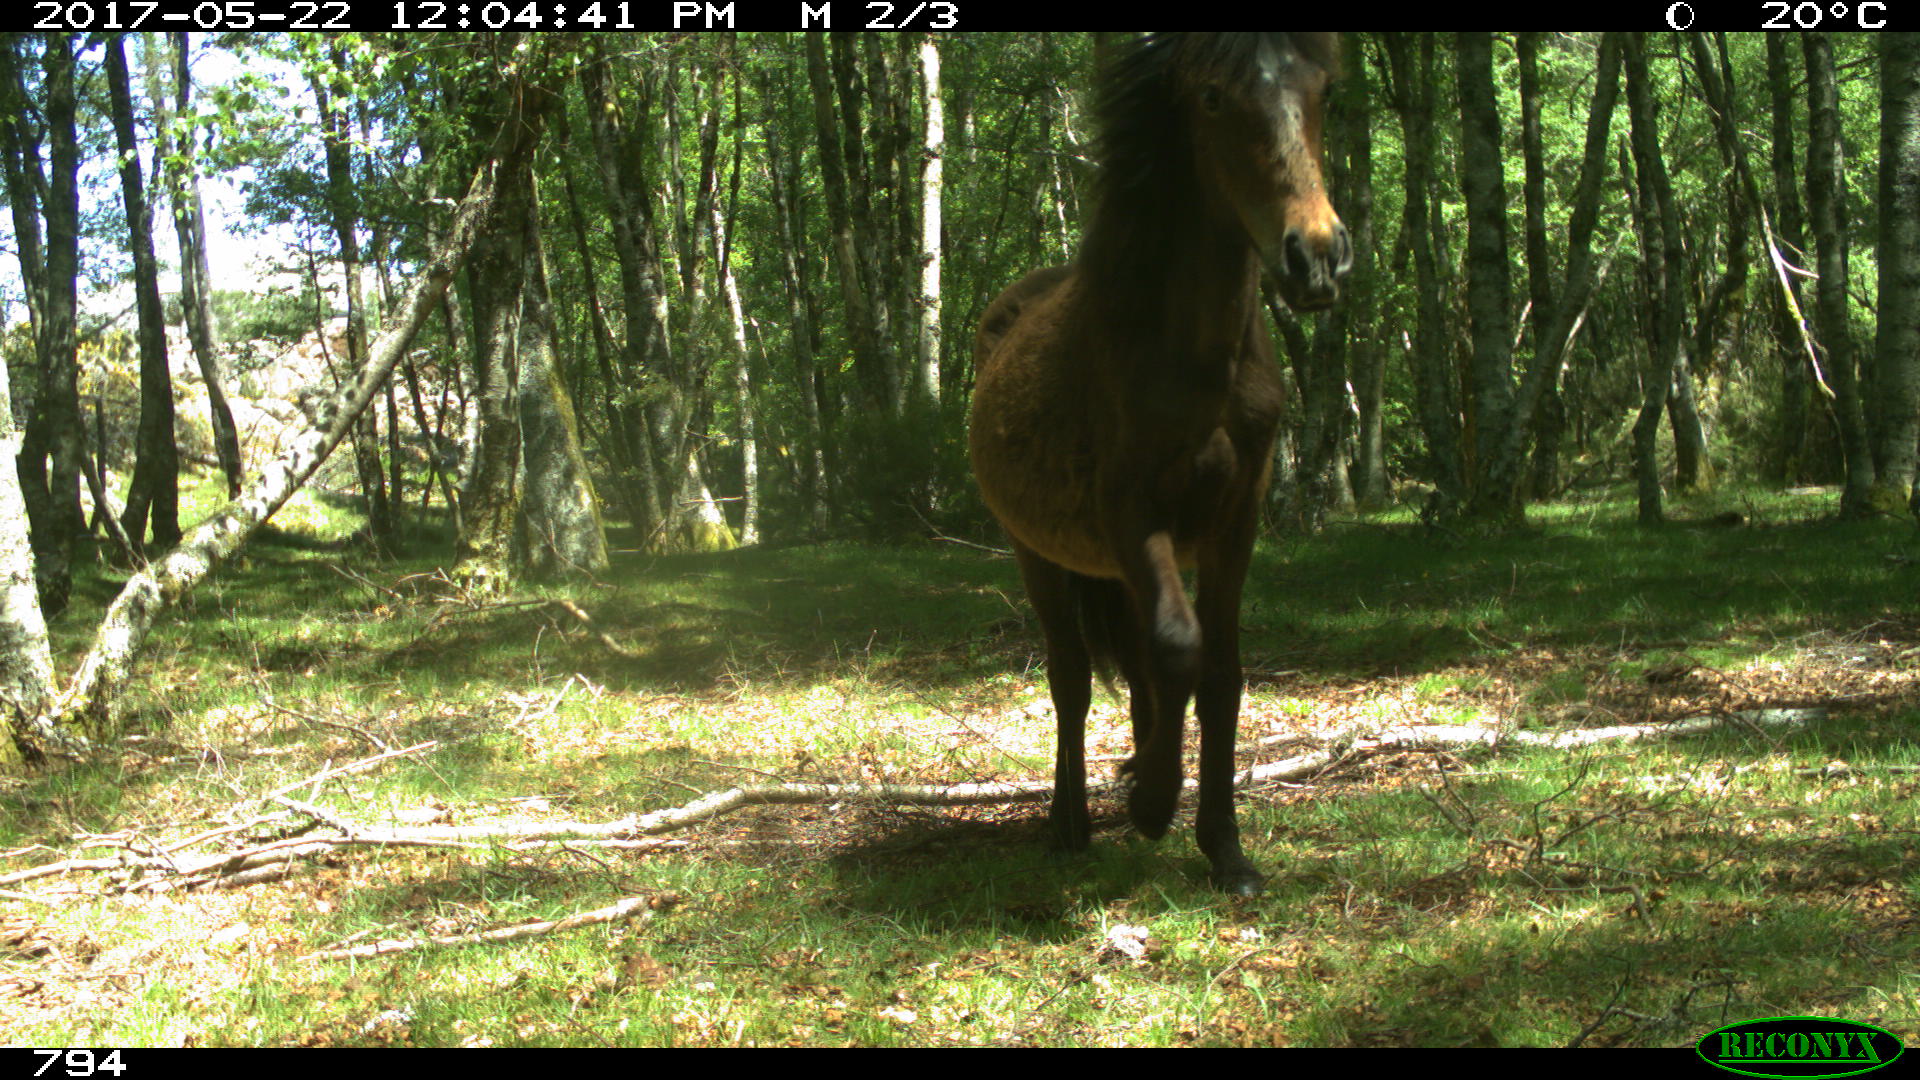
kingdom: Animalia
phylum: Chordata
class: Mammalia
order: Perissodactyla
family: Equidae
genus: Equus
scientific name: Equus caballus
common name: Horse
